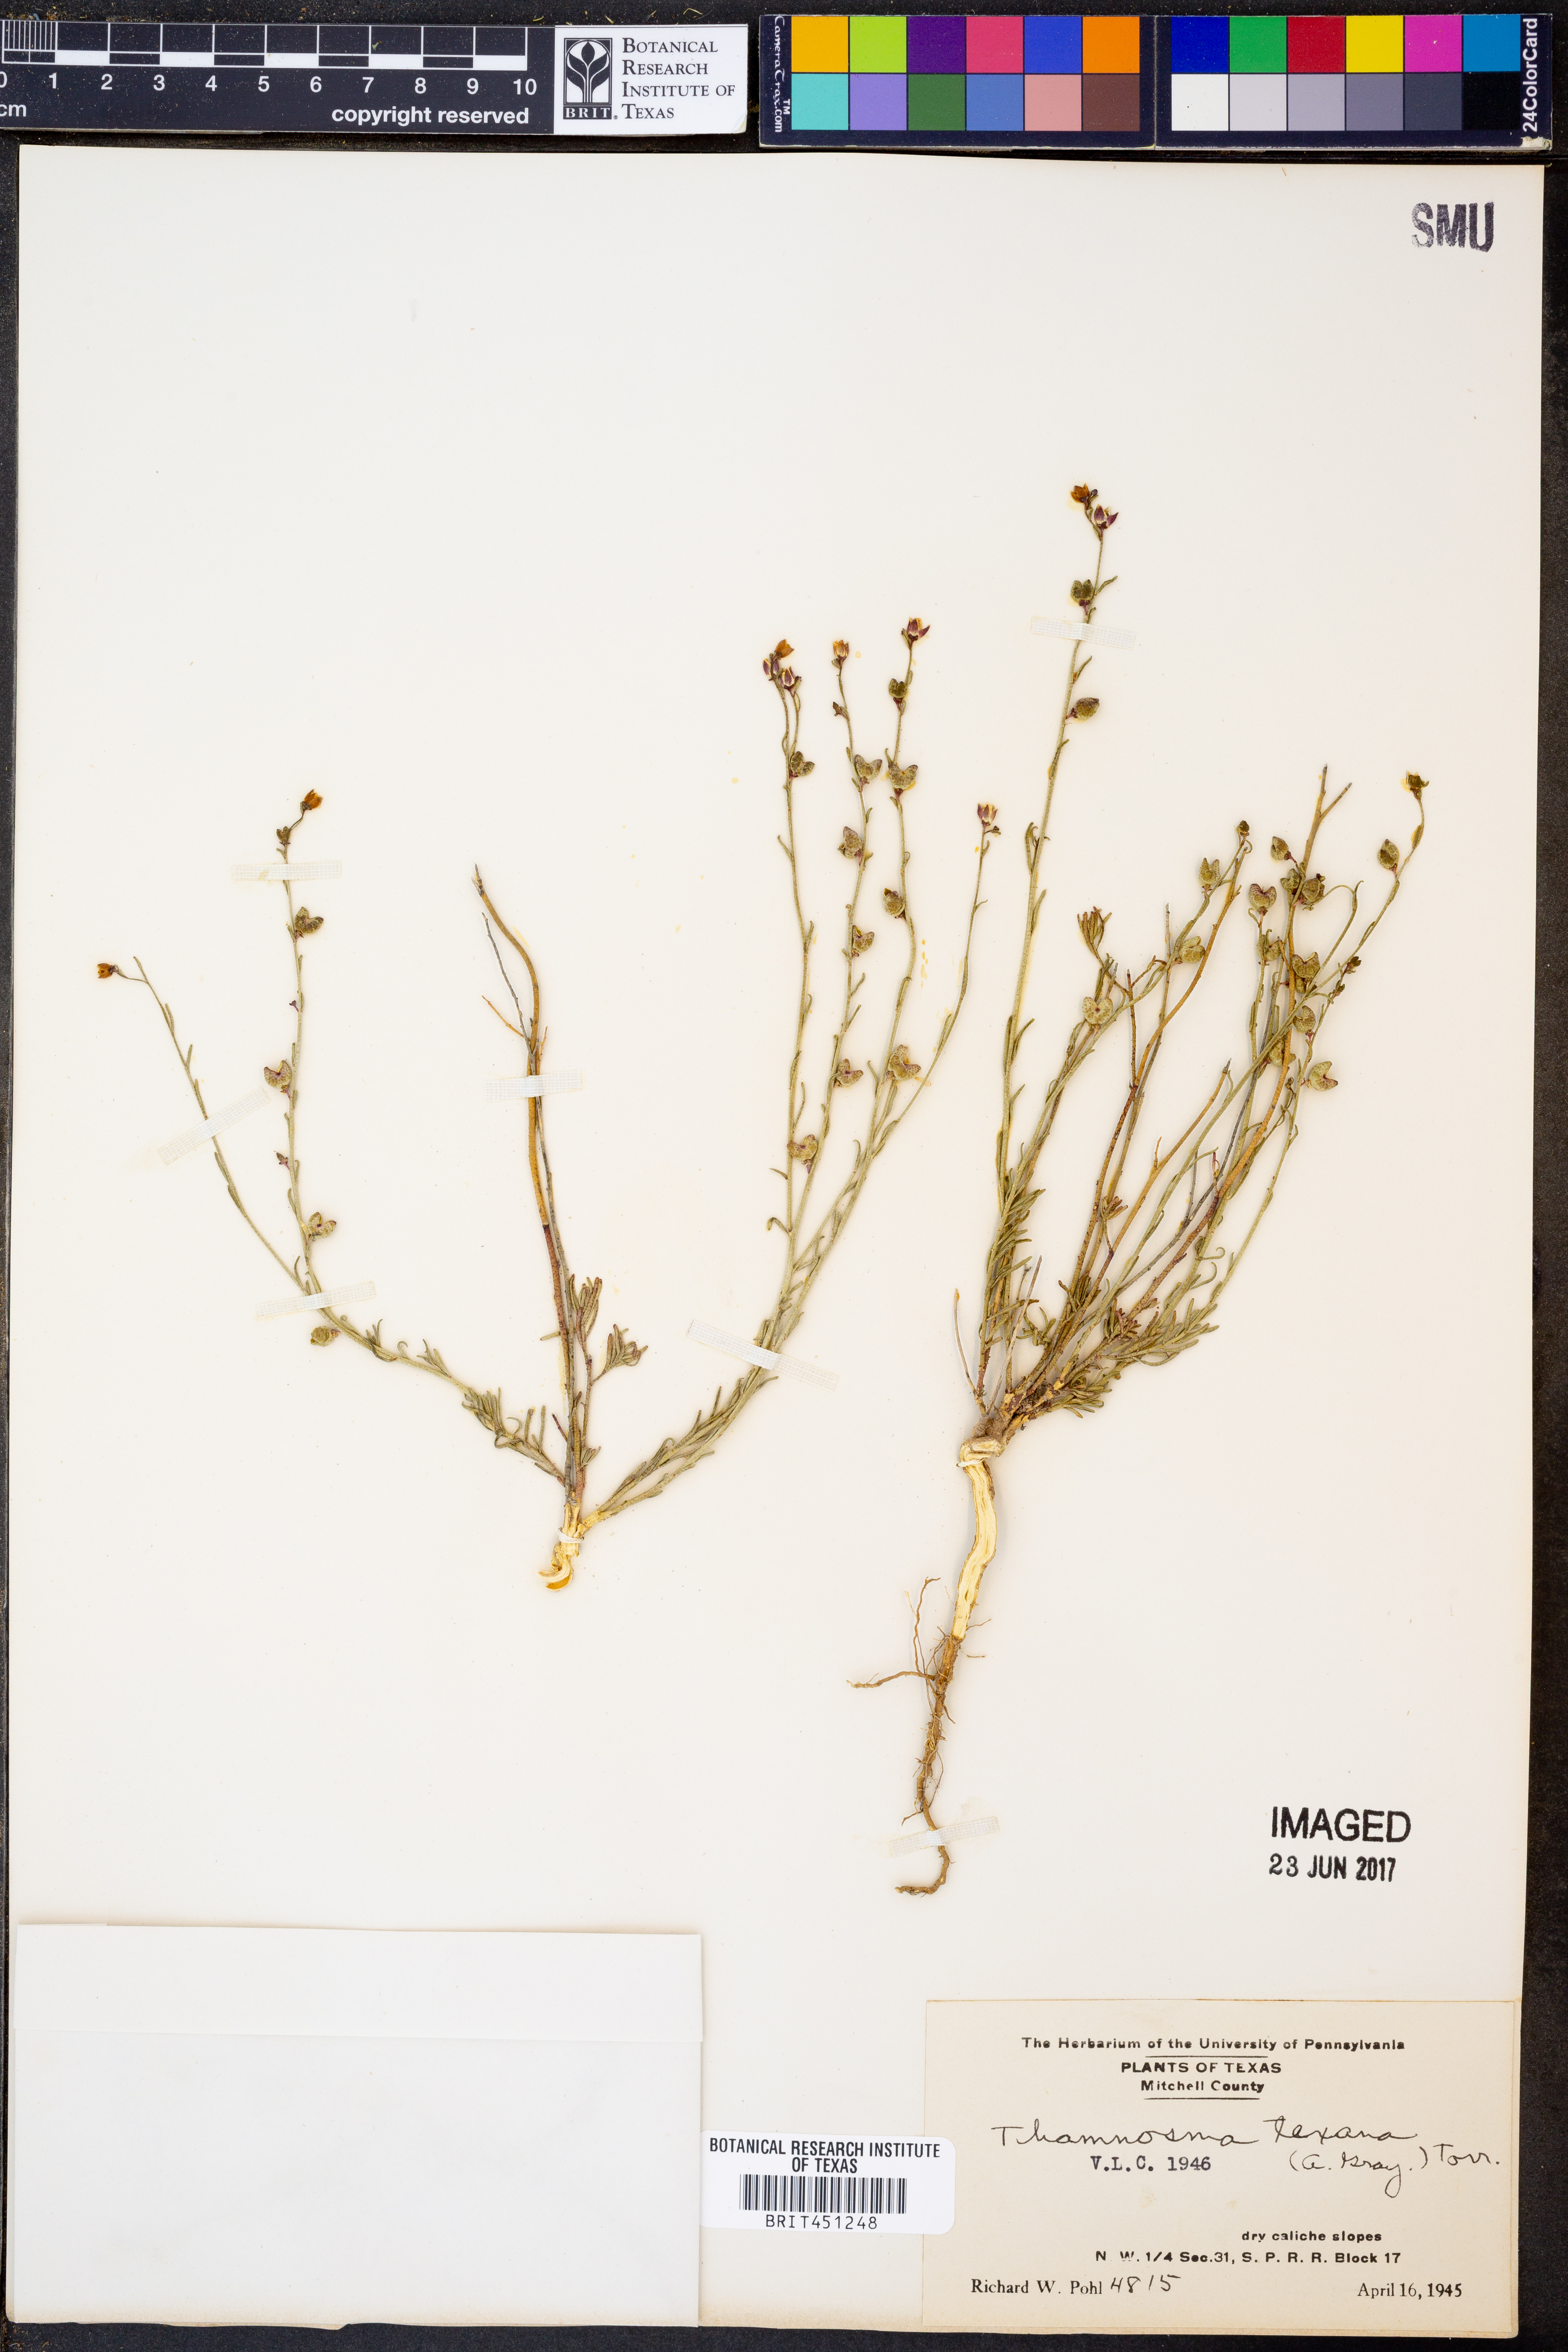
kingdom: Plantae
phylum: Tracheophyta
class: Magnoliopsida
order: Sapindales
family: Rutaceae
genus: Thamnosma
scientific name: Thamnosma texana
